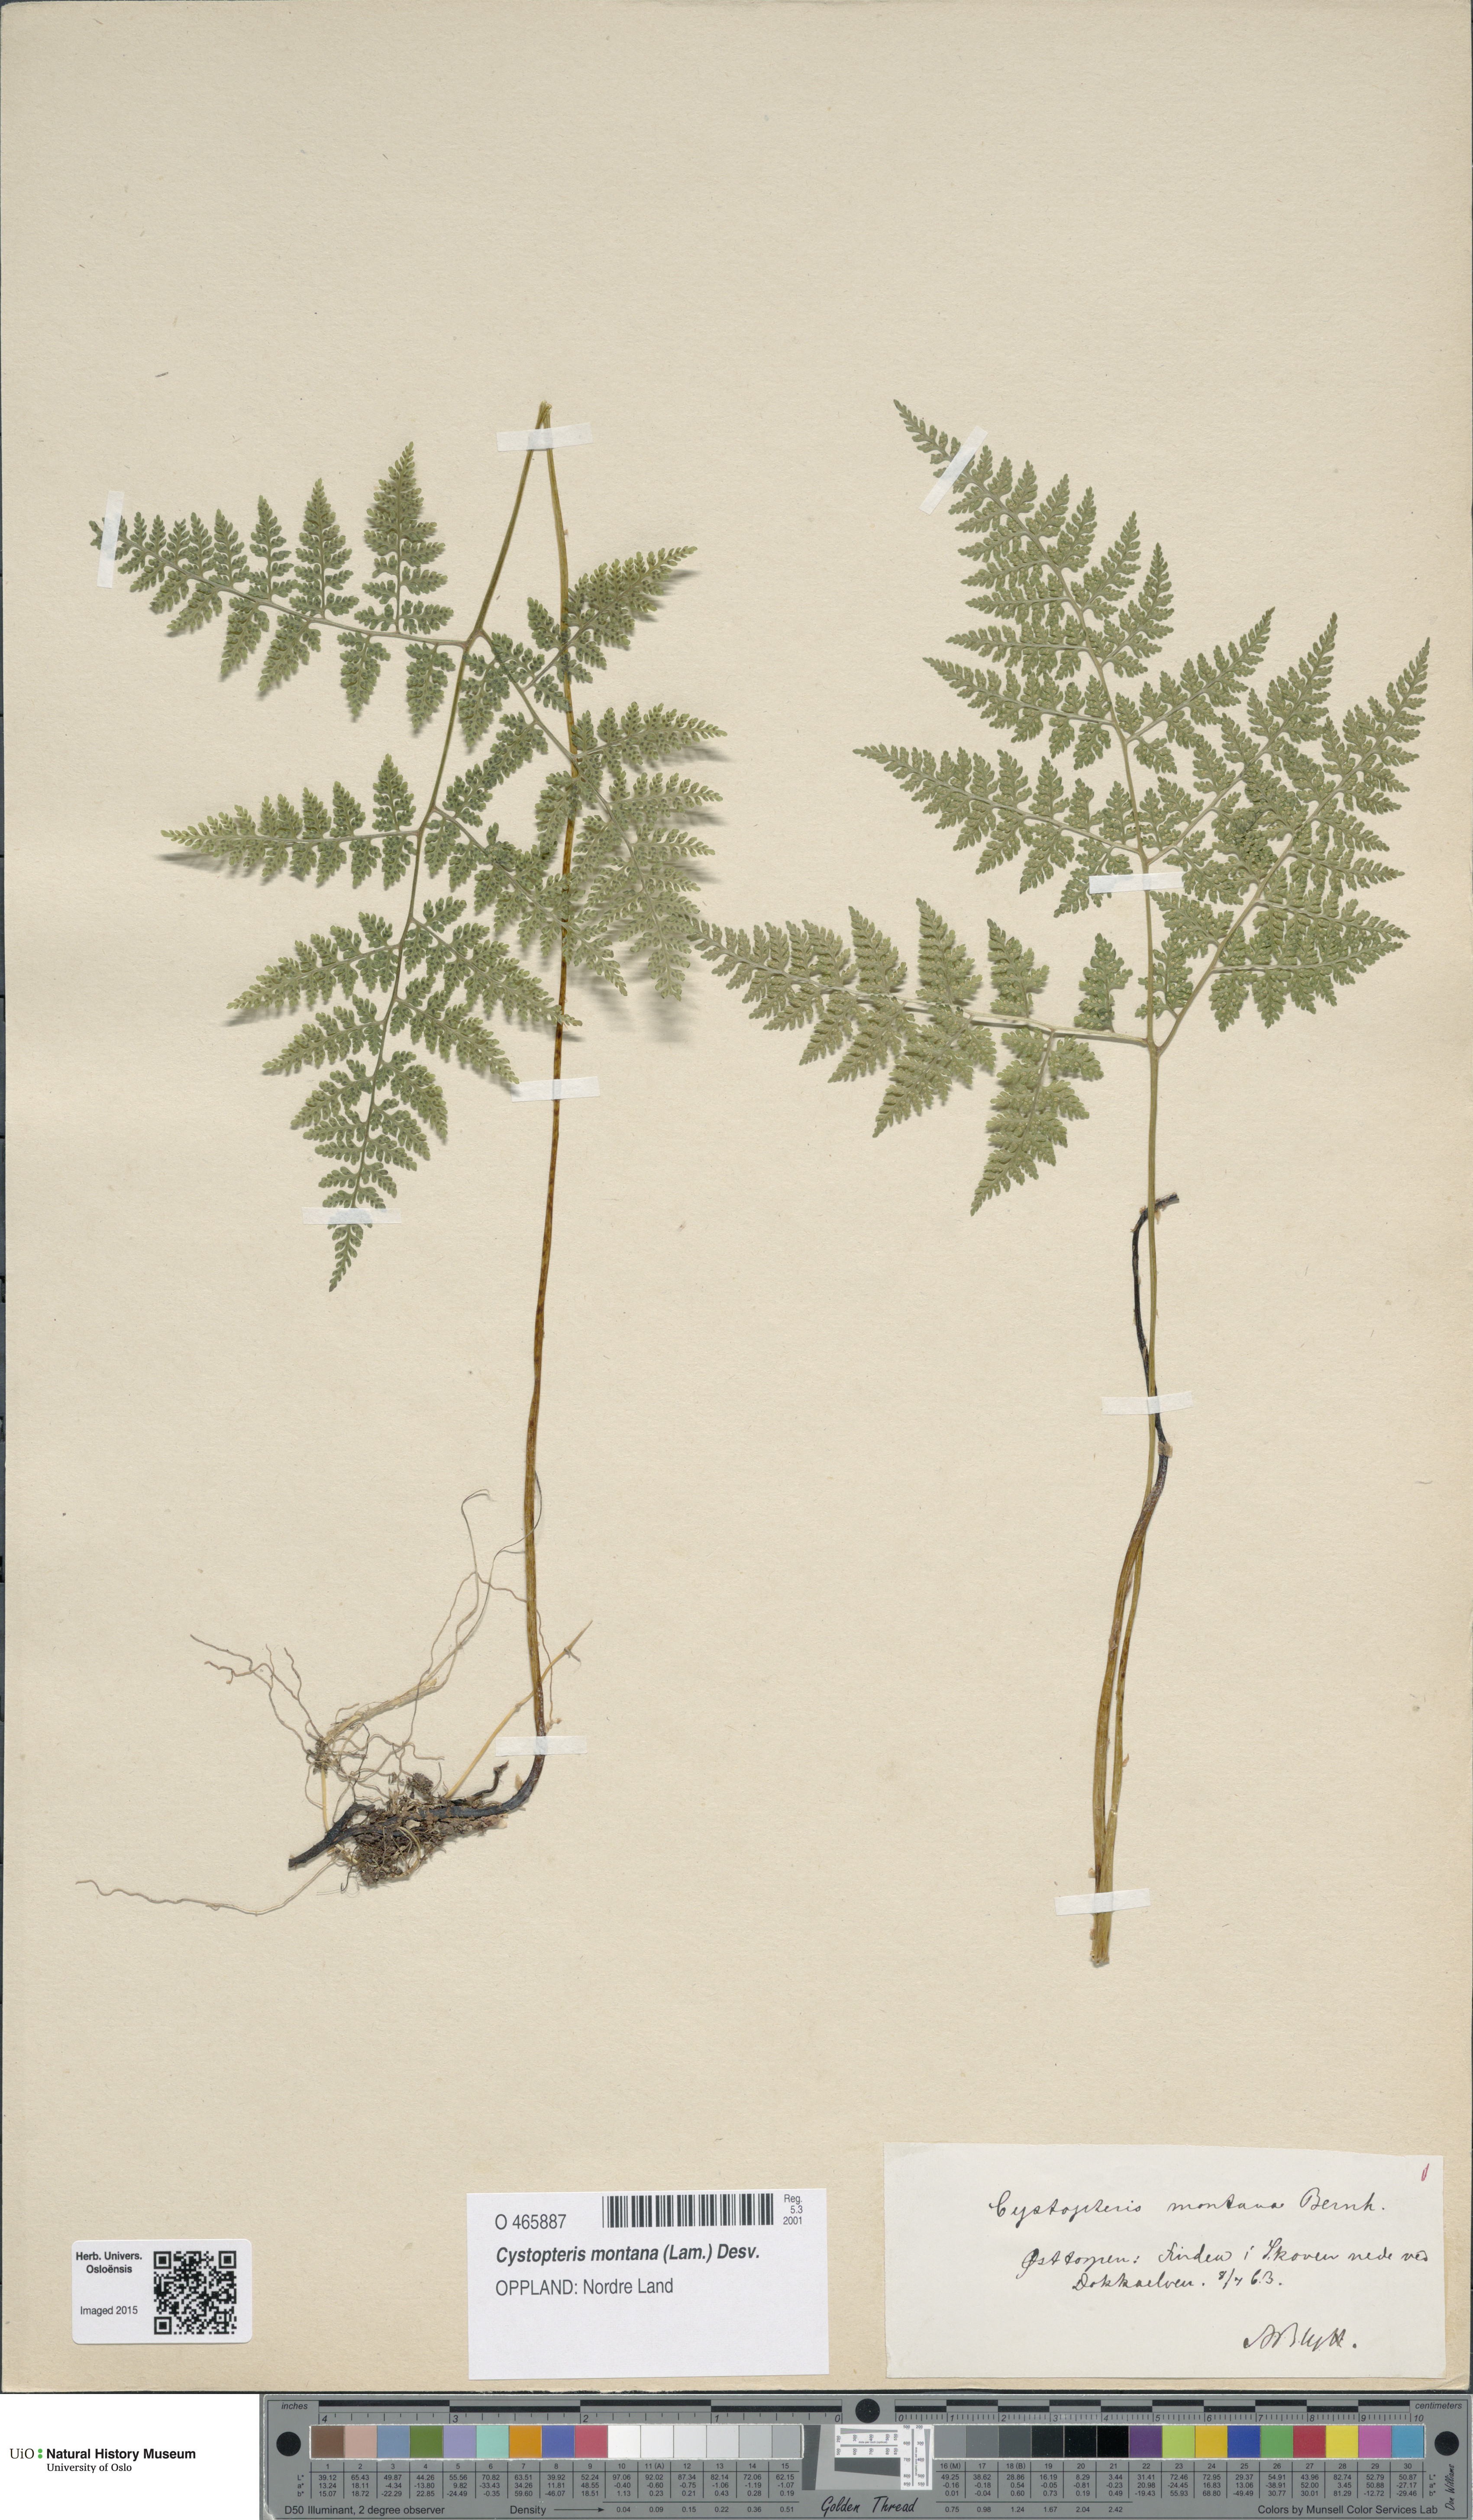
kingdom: Plantae
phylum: Tracheophyta
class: Polypodiopsida
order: Polypodiales
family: Cystopteridaceae
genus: Cystopteris
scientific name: Cystopteris montana
